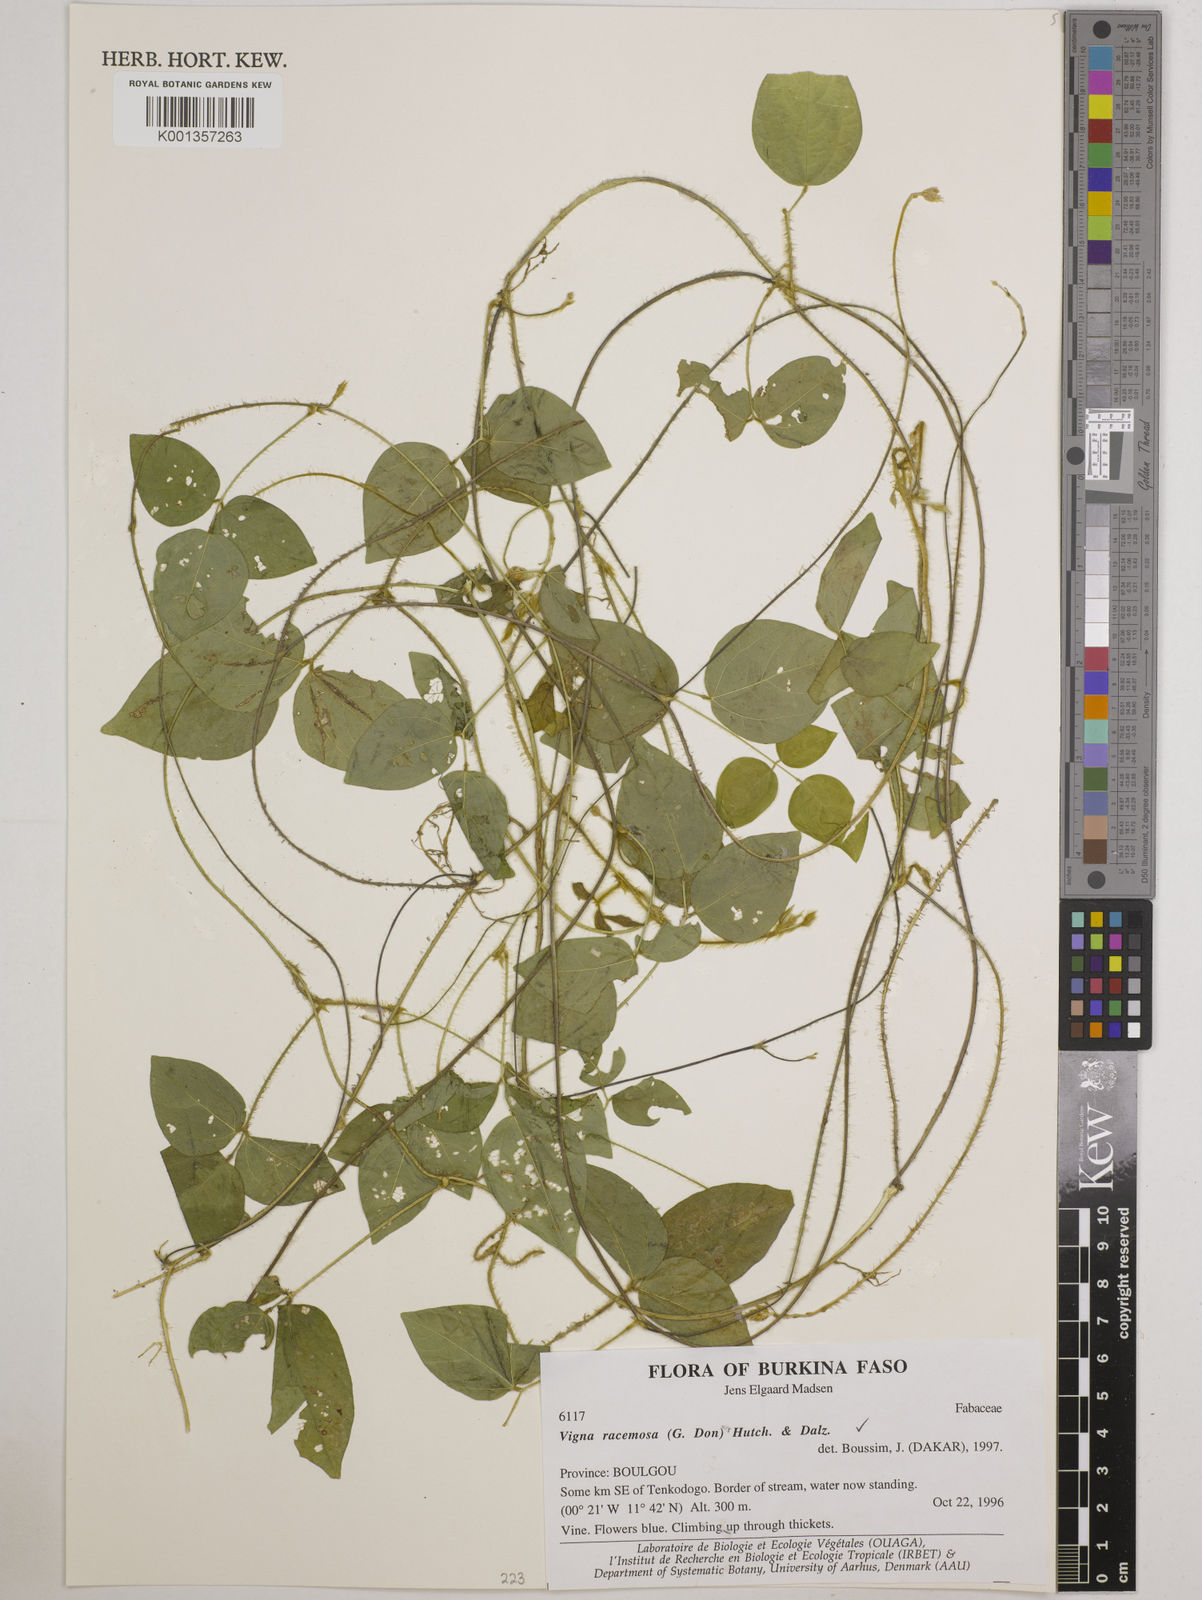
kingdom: Plantae
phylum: Tracheophyta
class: Magnoliopsida
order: Fabales
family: Fabaceae
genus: Vigna
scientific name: Vigna racemosa
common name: Beans not eaten
